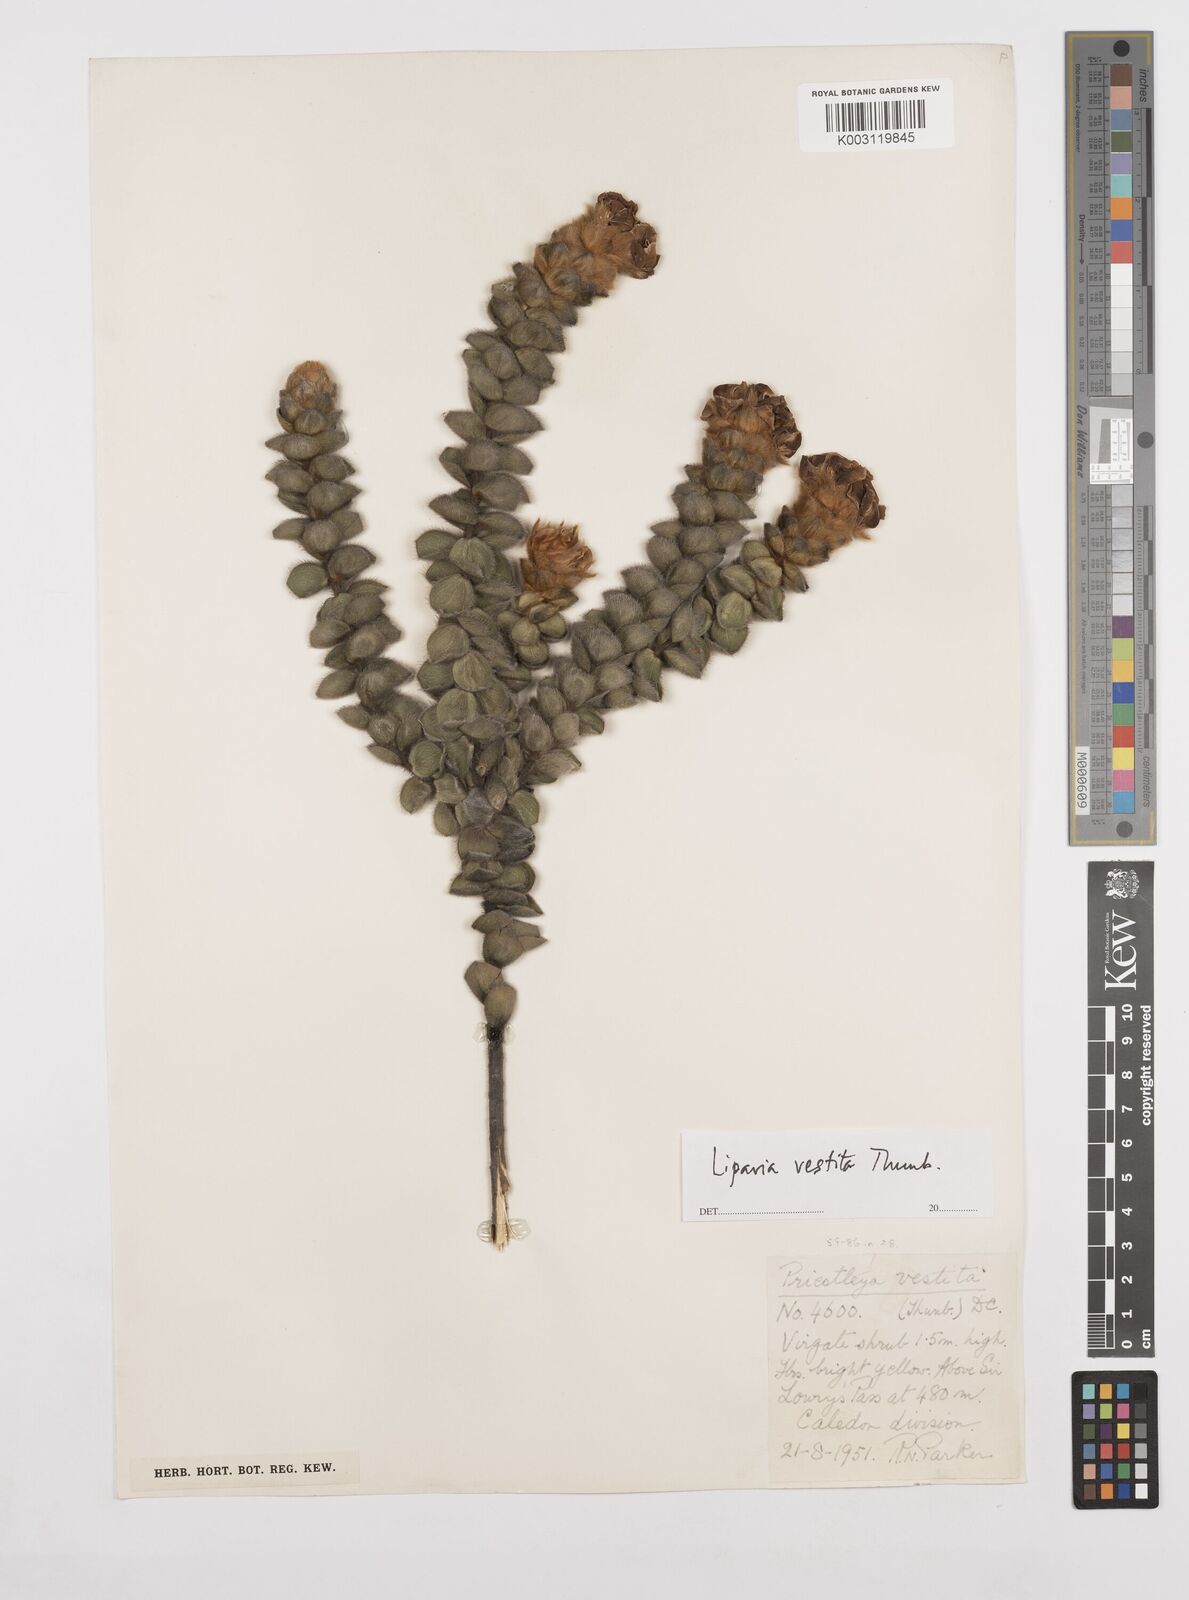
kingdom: Plantae
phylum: Tracheophyta
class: Magnoliopsida
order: Fabales
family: Fabaceae
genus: Liparia
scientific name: Liparia vestita
